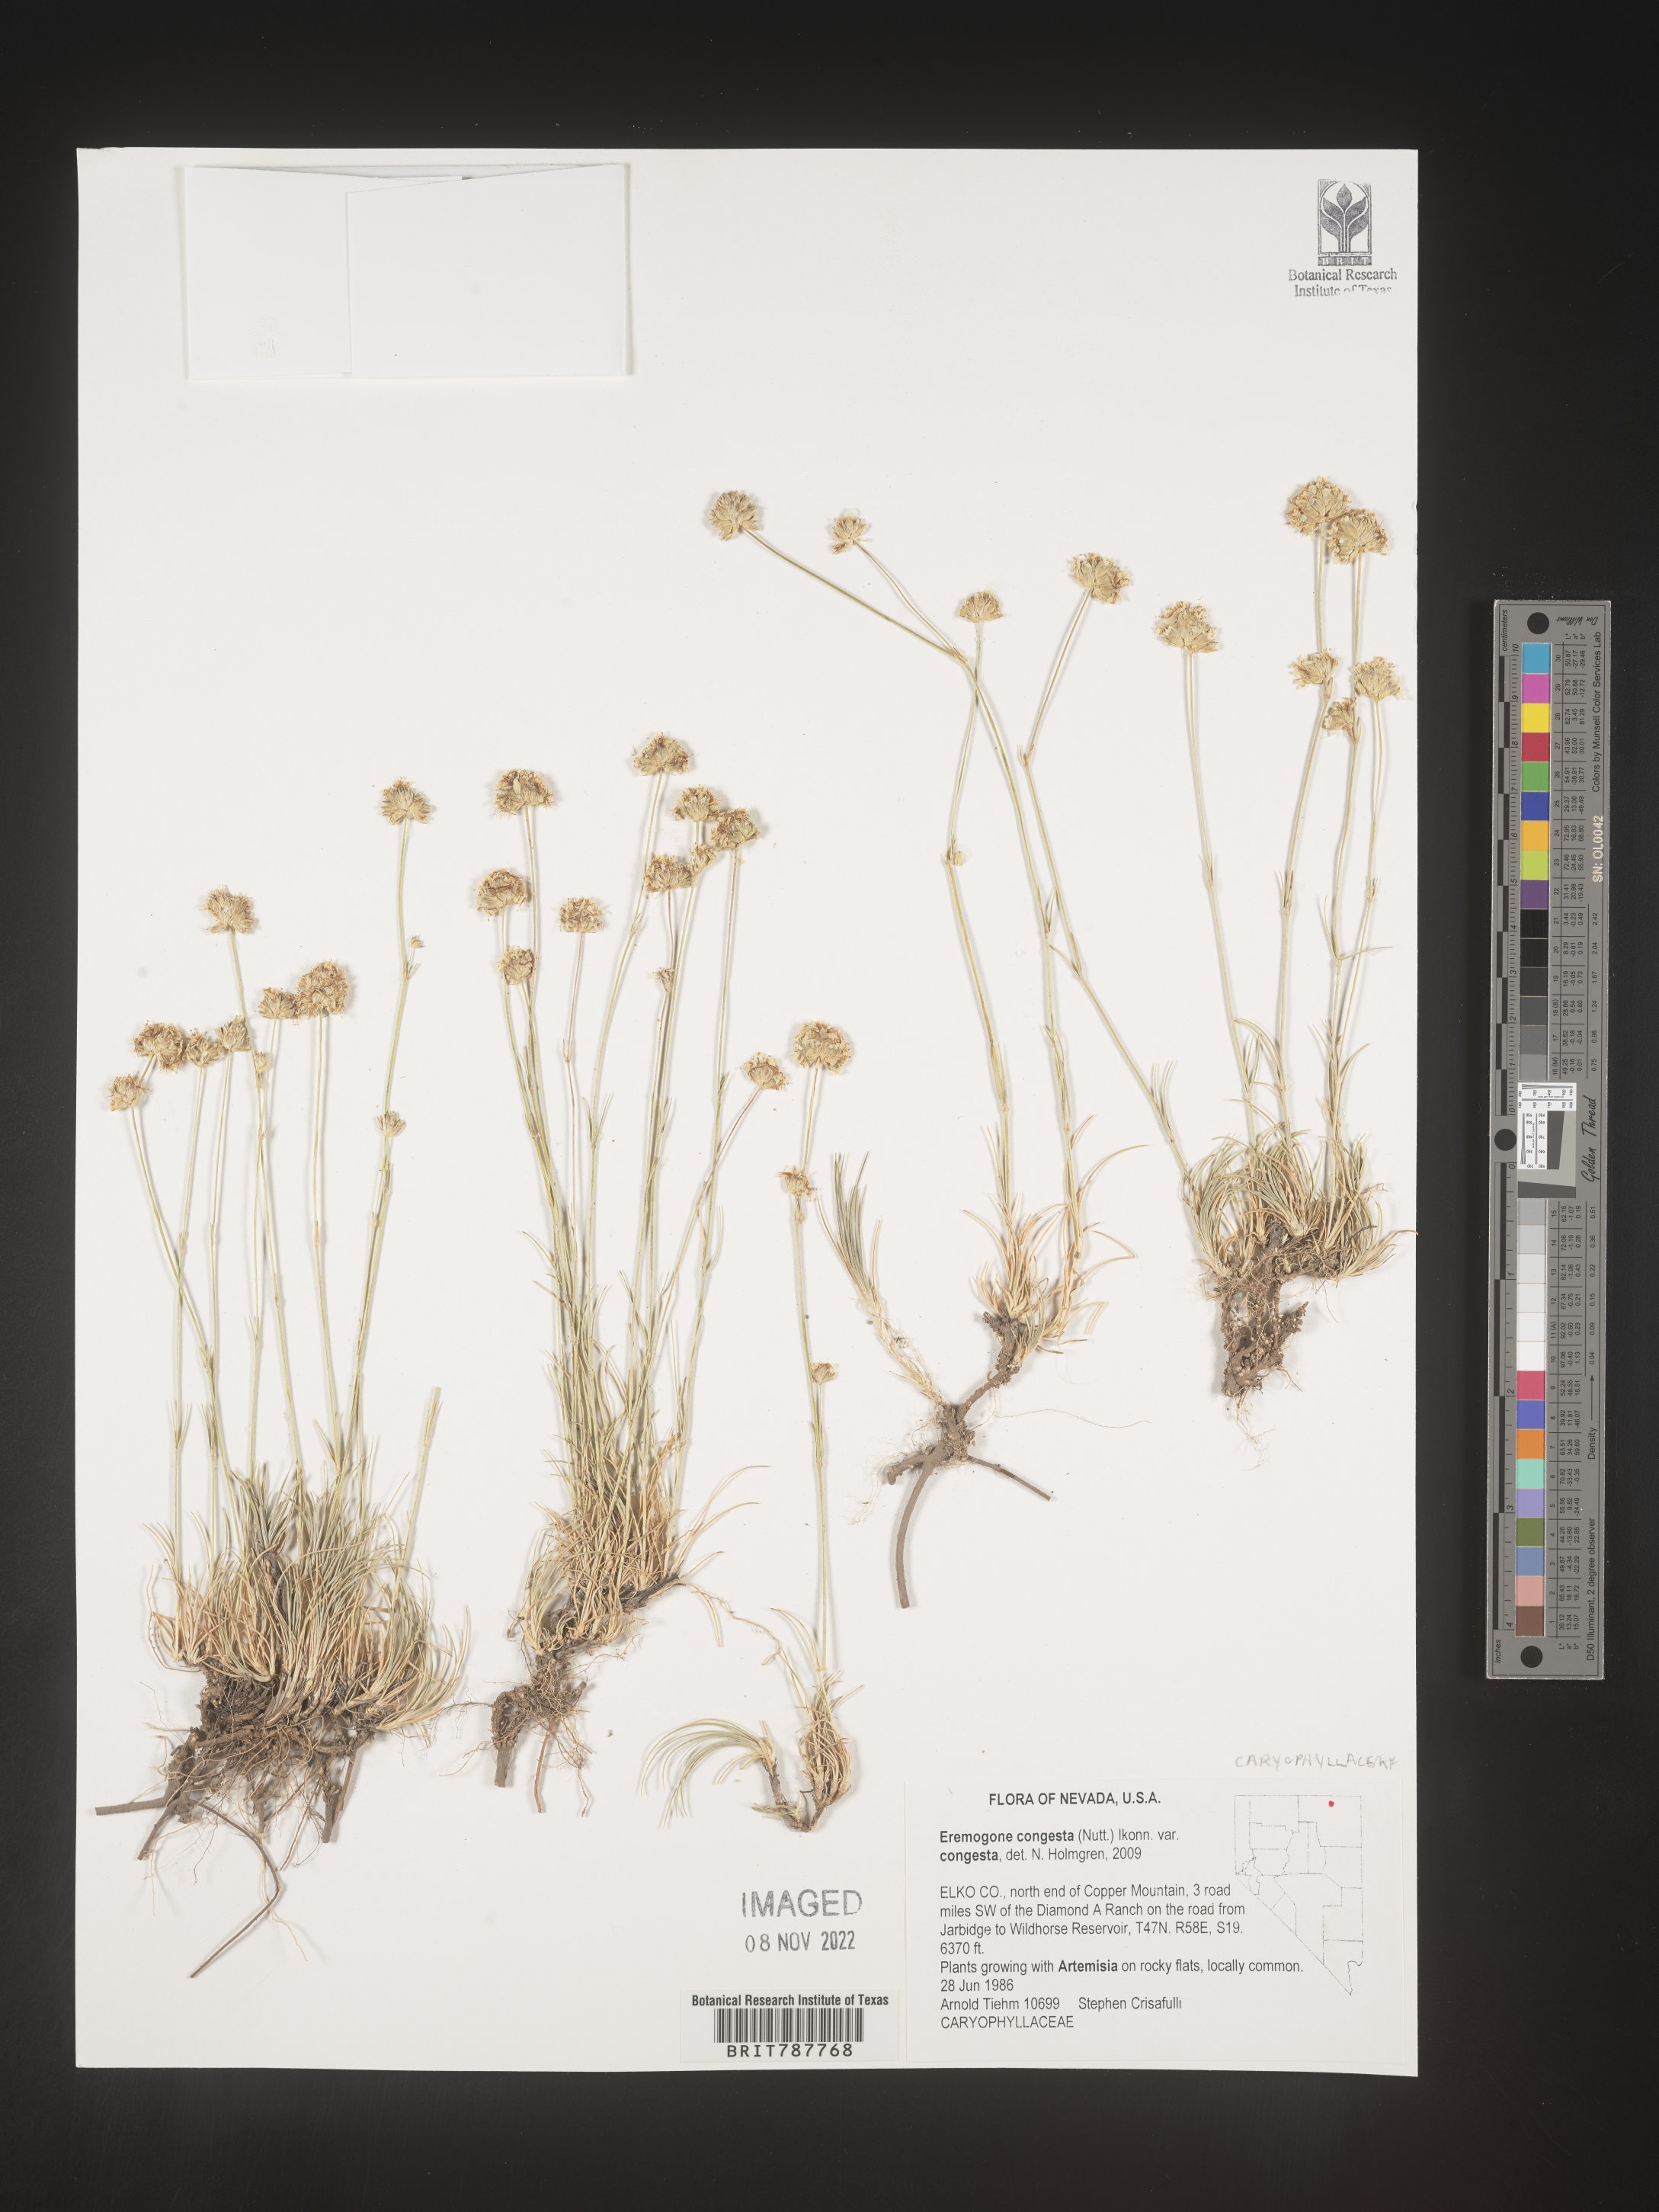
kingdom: Plantae
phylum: Tracheophyta
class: Magnoliopsida
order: Caryophyllales
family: Caryophyllaceae
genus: Eremogone
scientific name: Eremogone congesta
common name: Ballhead sandwort
